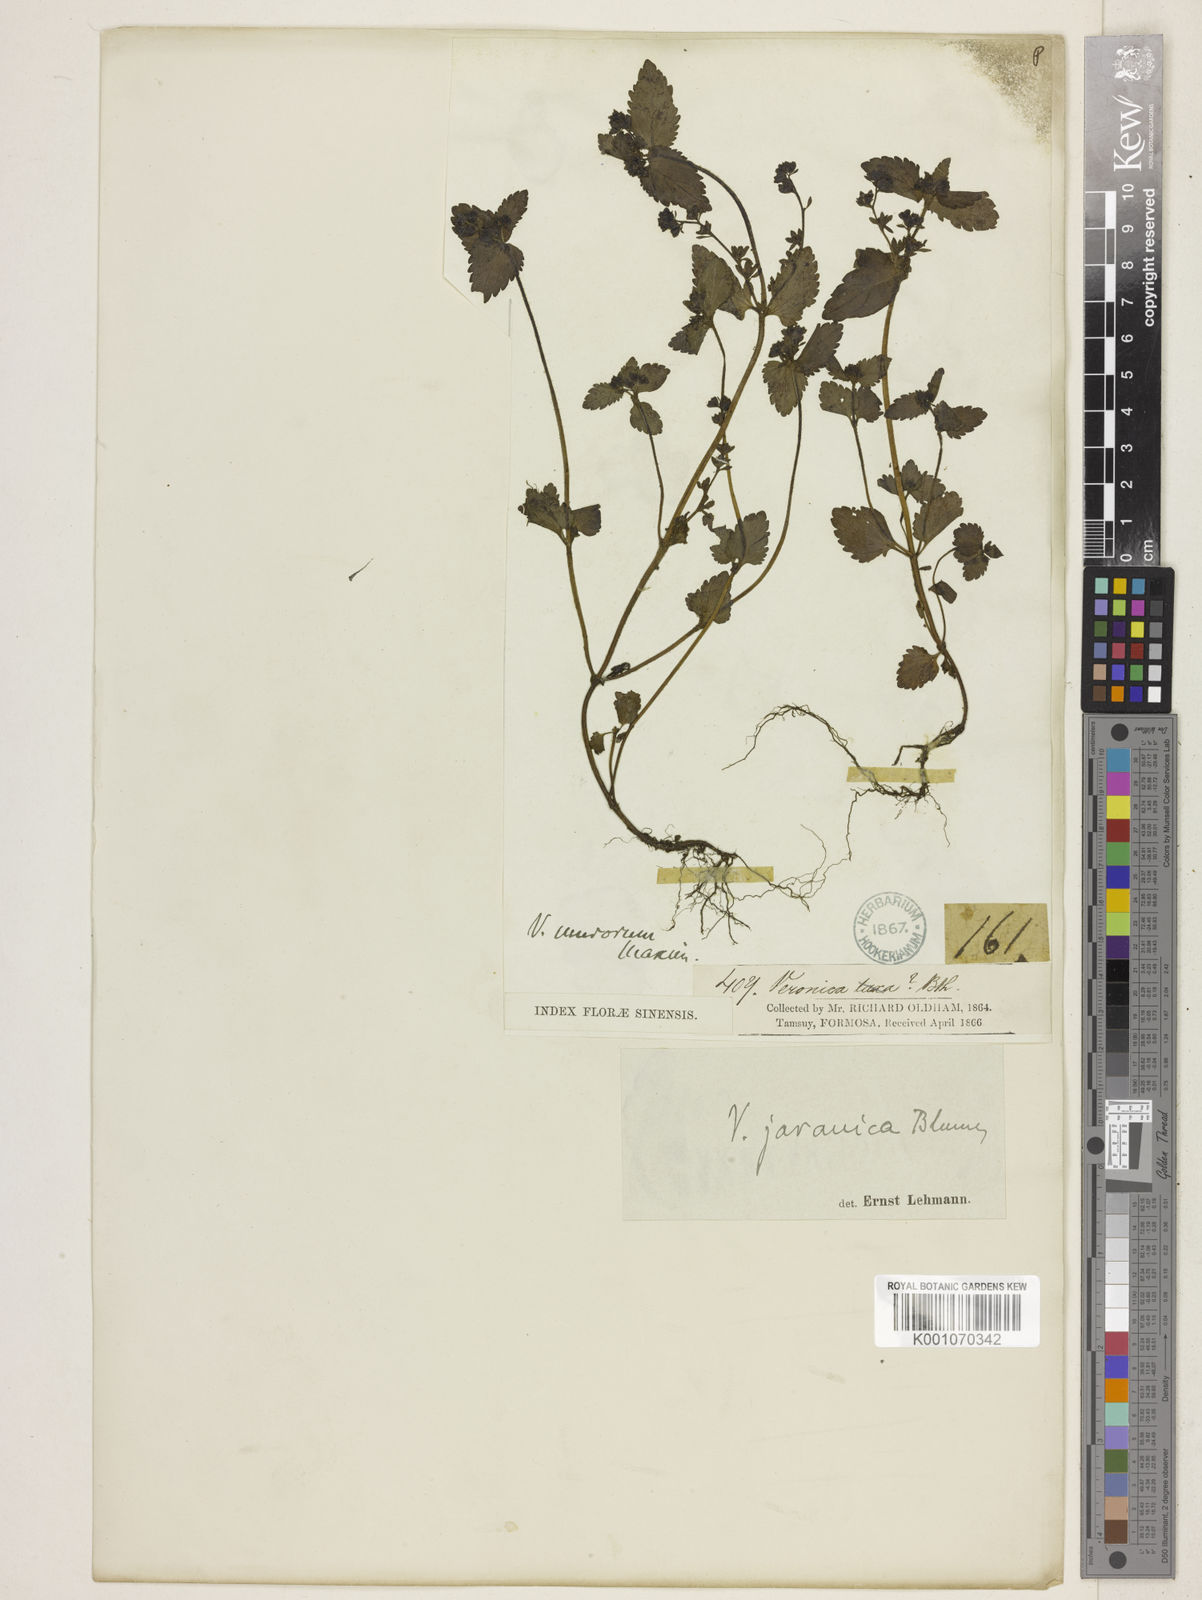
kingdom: Plantae
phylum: Tracheophyta
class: Magnoliopsida
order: Lamiales
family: Plantaginaceae
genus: Veronica
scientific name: Veronica javanica
